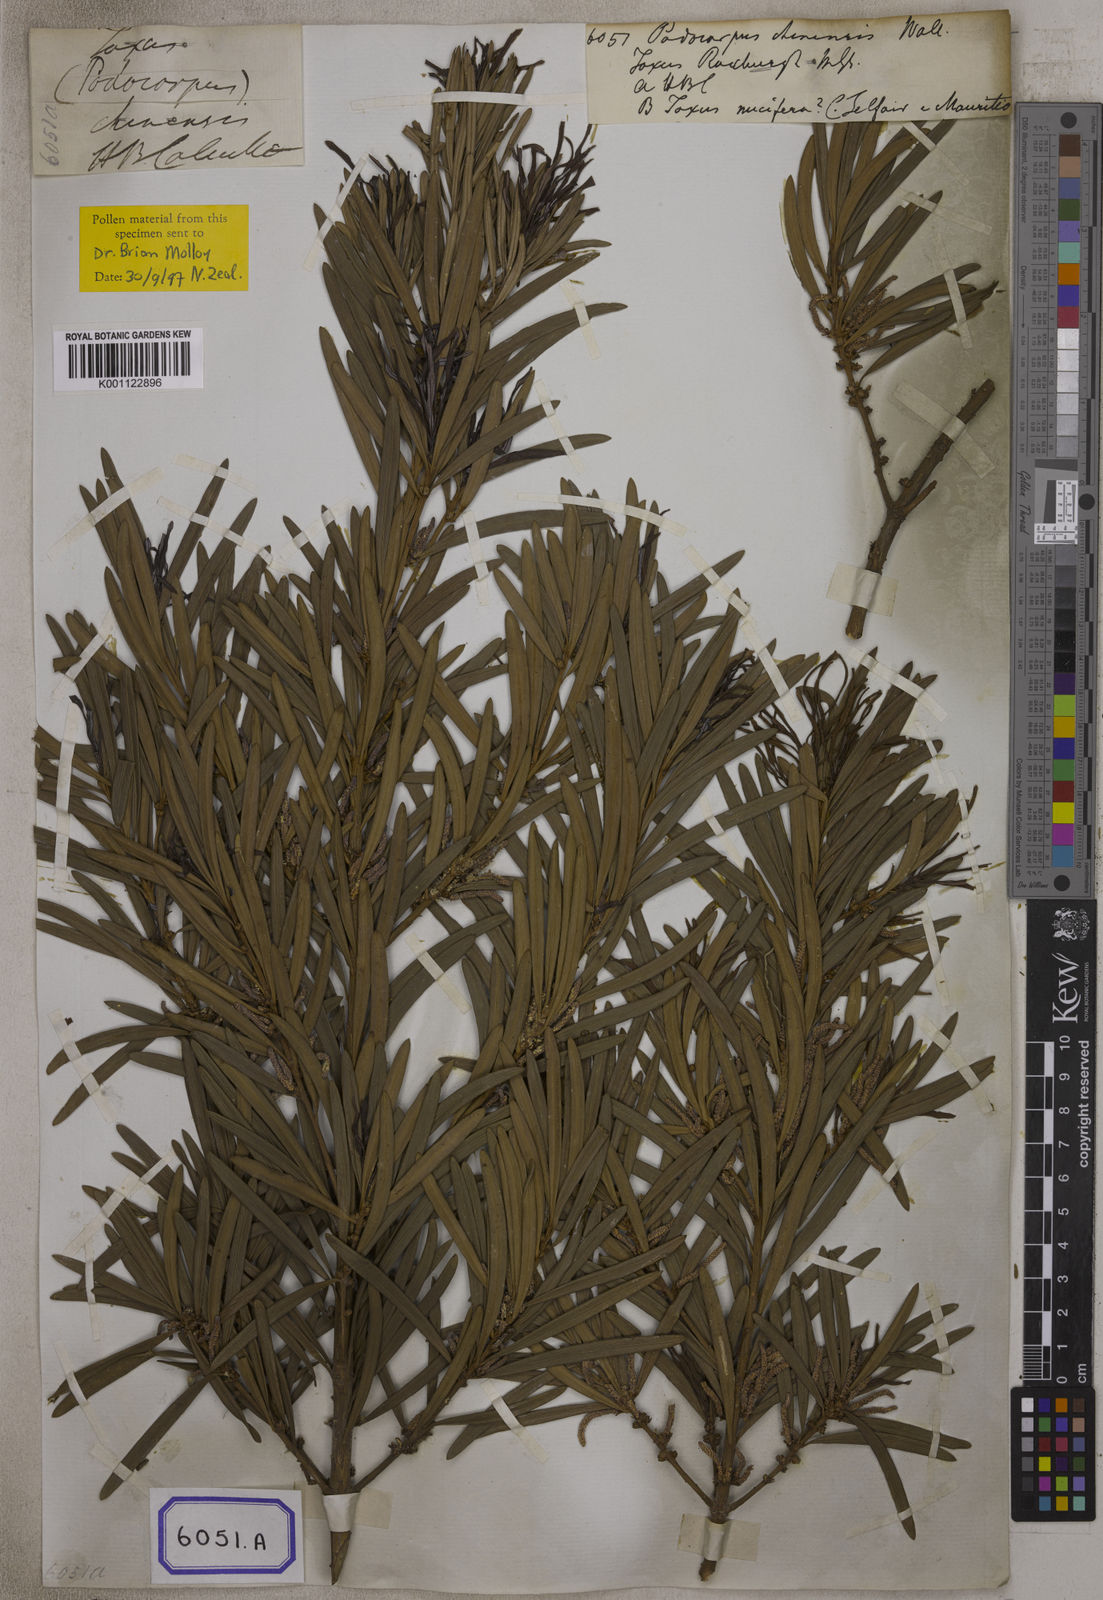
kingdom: Plantae
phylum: Tracheophyta
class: Pinopsida
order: Pinales
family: Podocarpaceae
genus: Podocarpus
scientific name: Podocarpus
